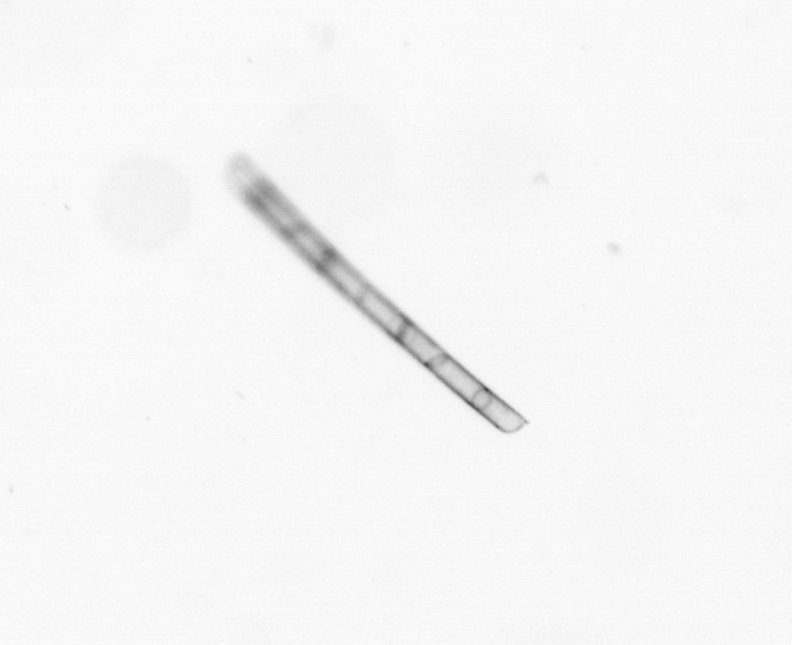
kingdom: Chromista
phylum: Ochrophyta
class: Bacillariophyceae
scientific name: Bacillariophyceae
